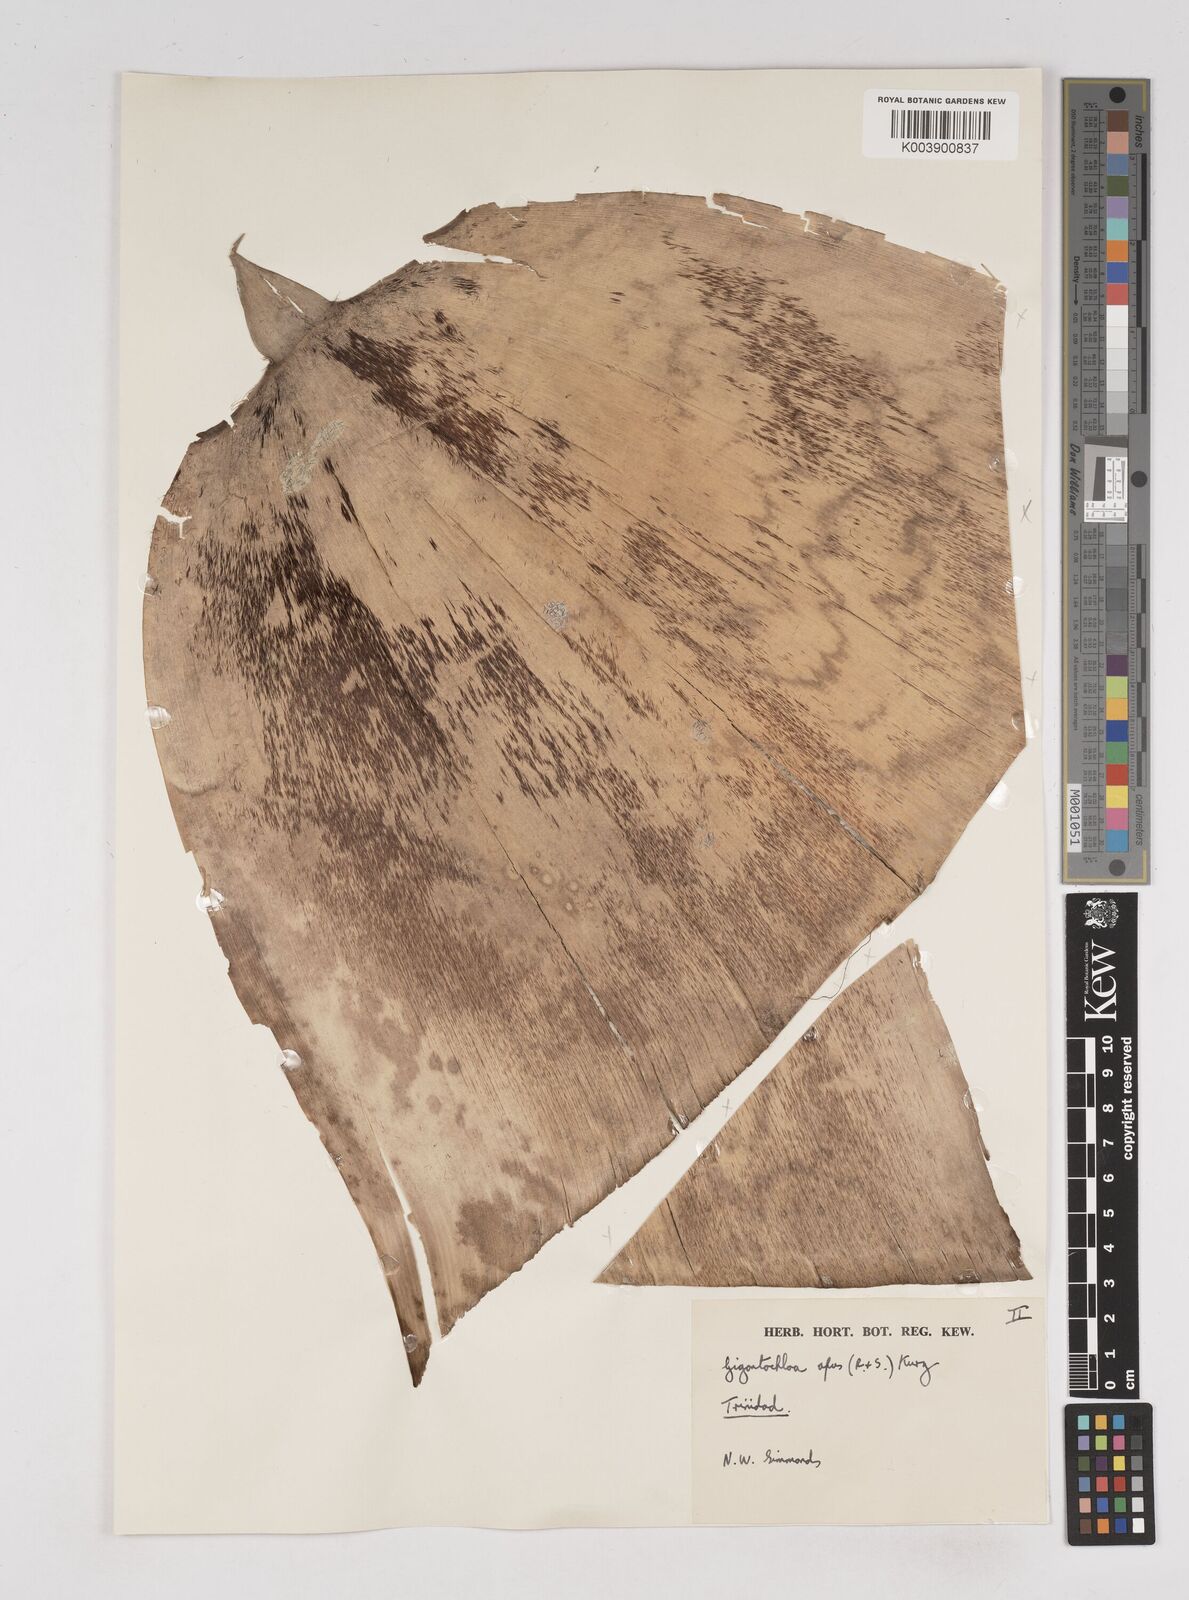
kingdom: Plantae
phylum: Tracheophyta
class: Liliopsida
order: Poales
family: Poaceae
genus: Gigantochloa
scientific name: Gigantochloa apus
